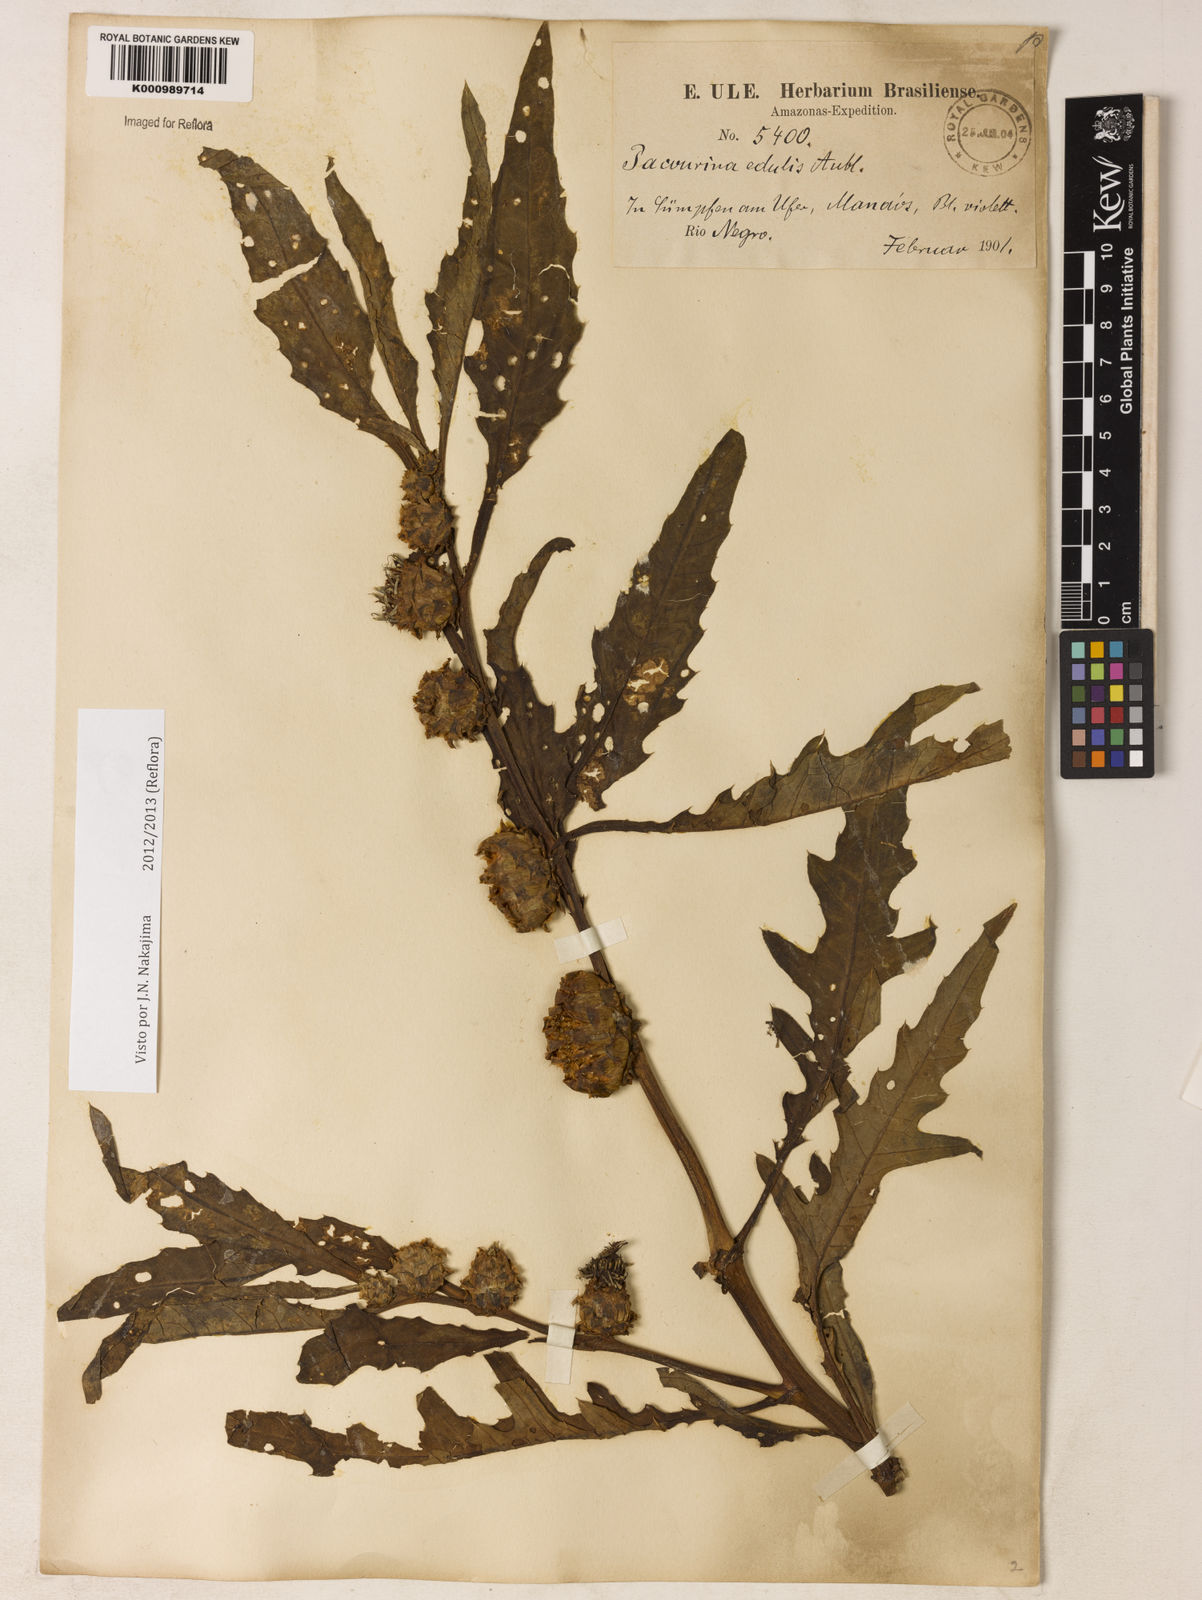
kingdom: Plantae
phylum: Tracheophyta
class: Magnoliopsida
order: Asterales
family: Asteraceae
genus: Pacourina
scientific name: Pacourina edulis
